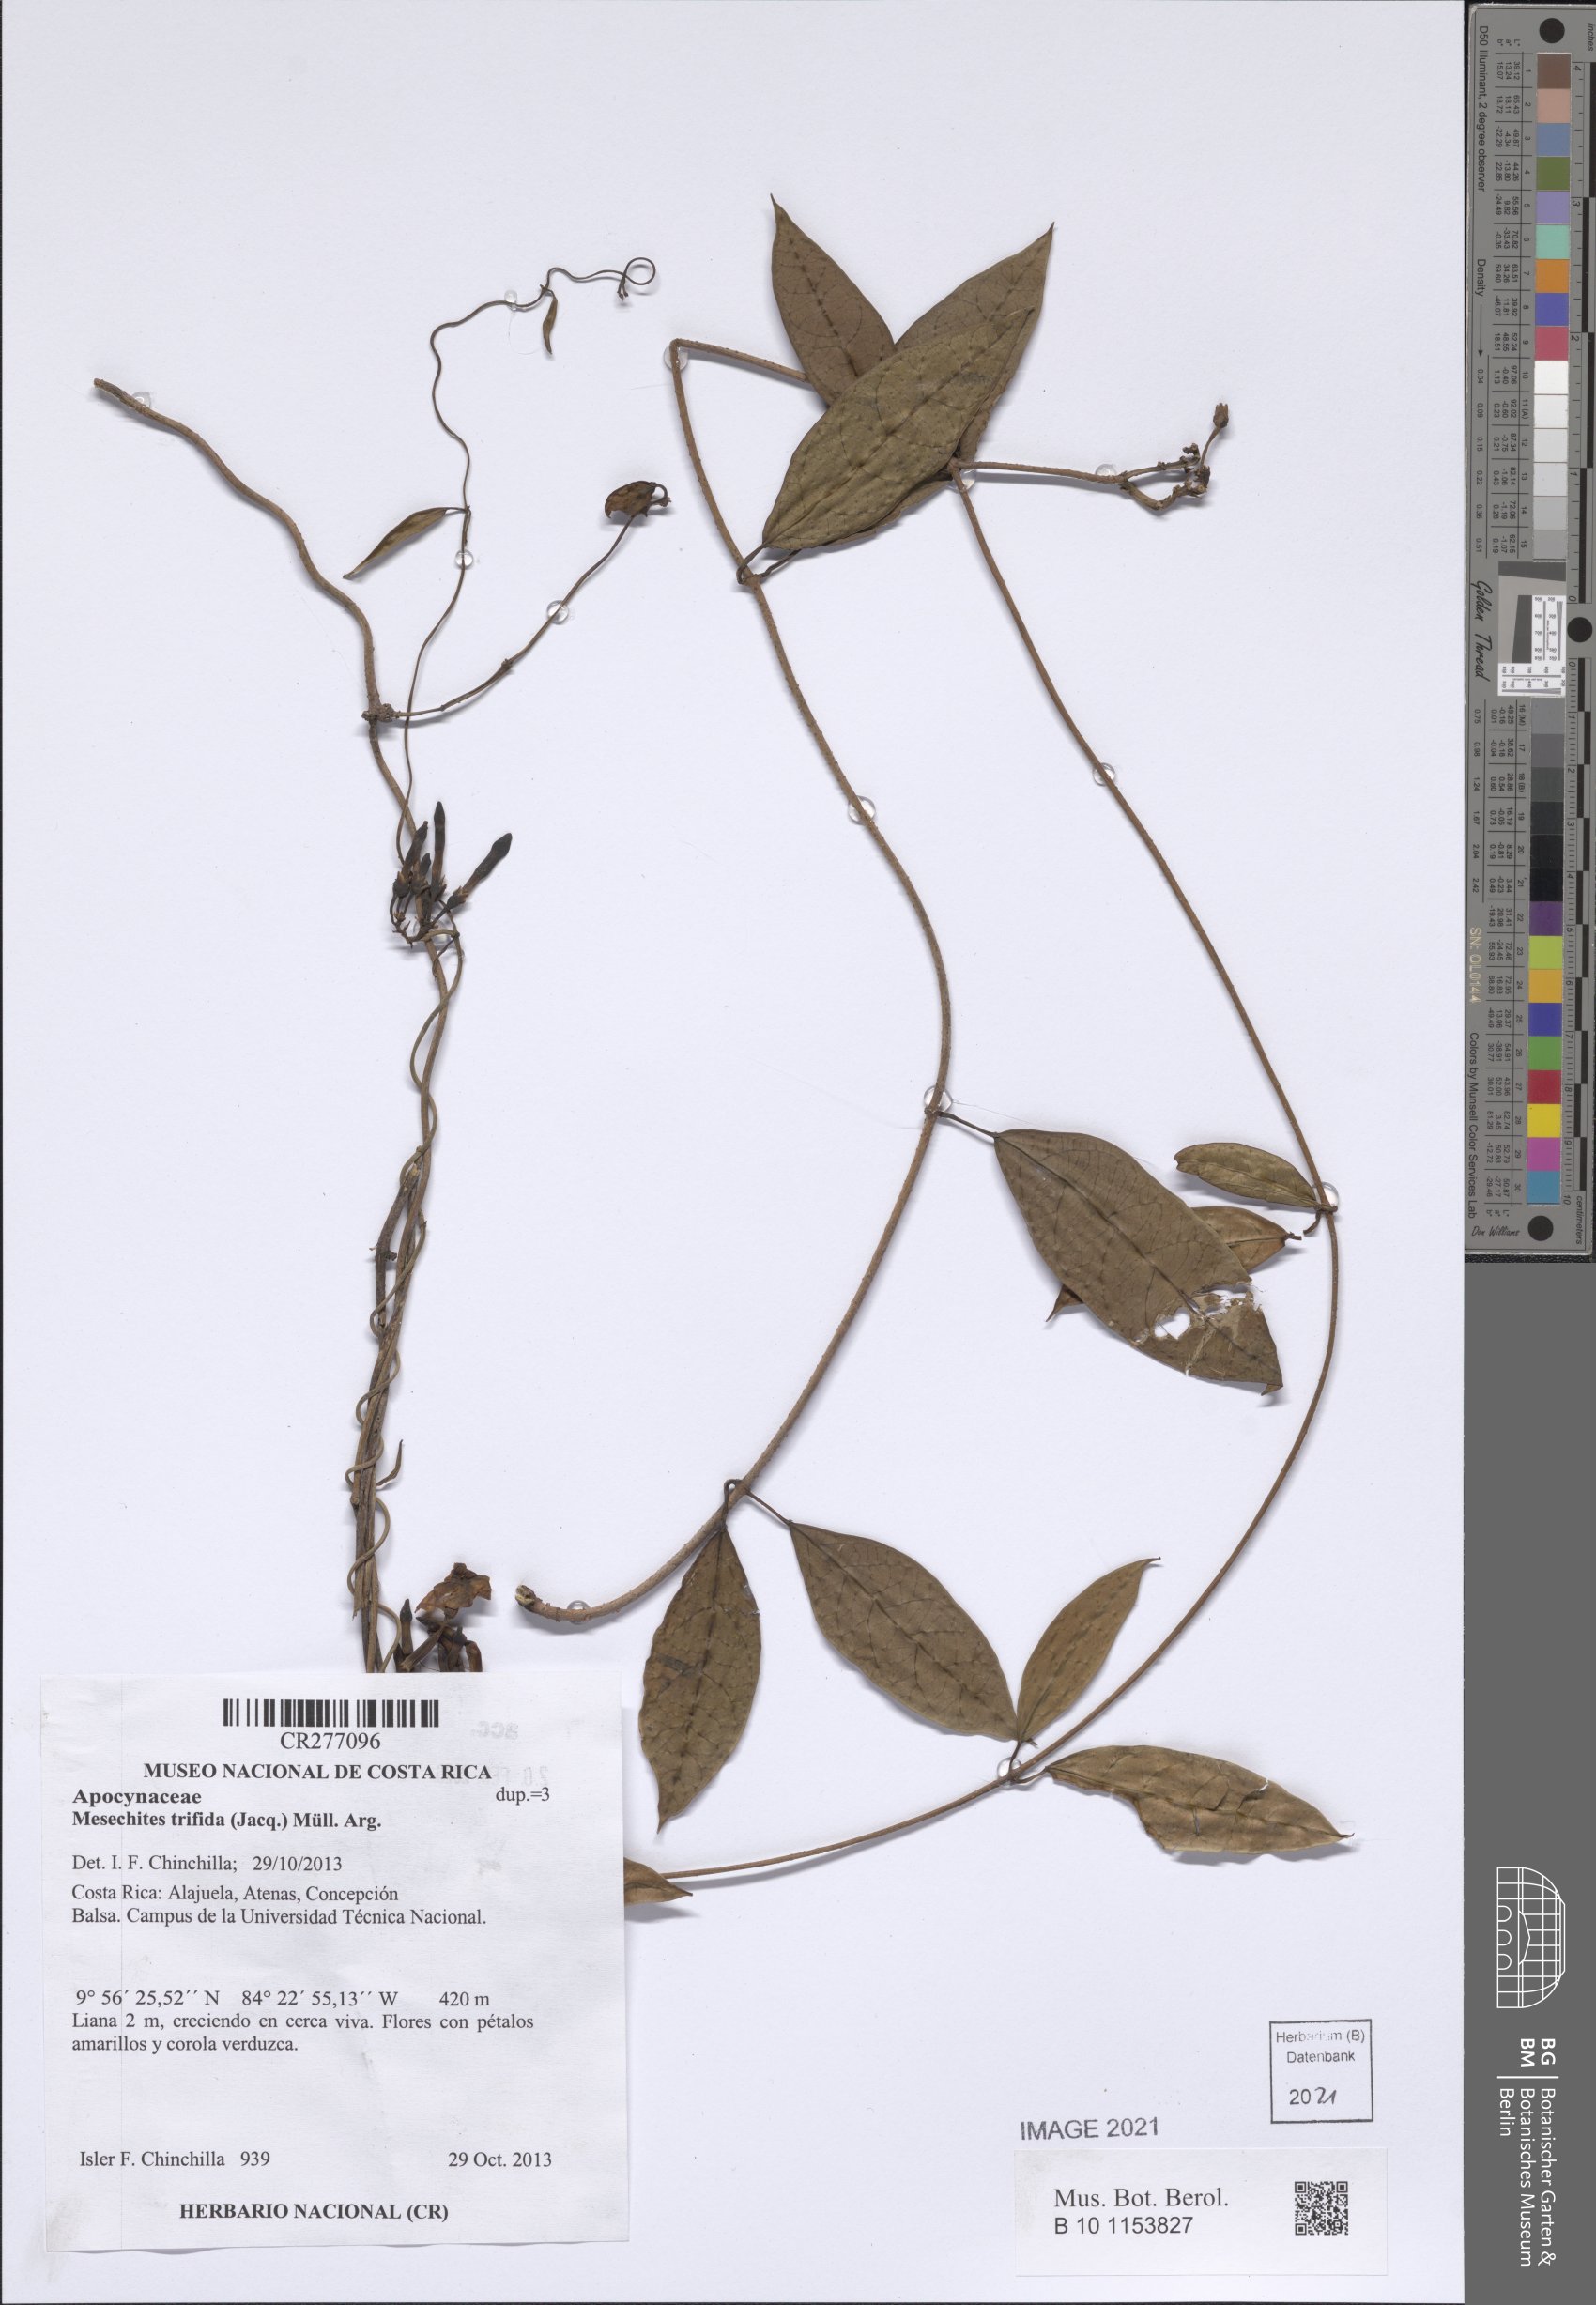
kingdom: Plantae
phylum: Tracheophyta
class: Magnoliopsida
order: Gentianales
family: Apocynaceae
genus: Mesechites
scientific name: Mesechites trifidus
